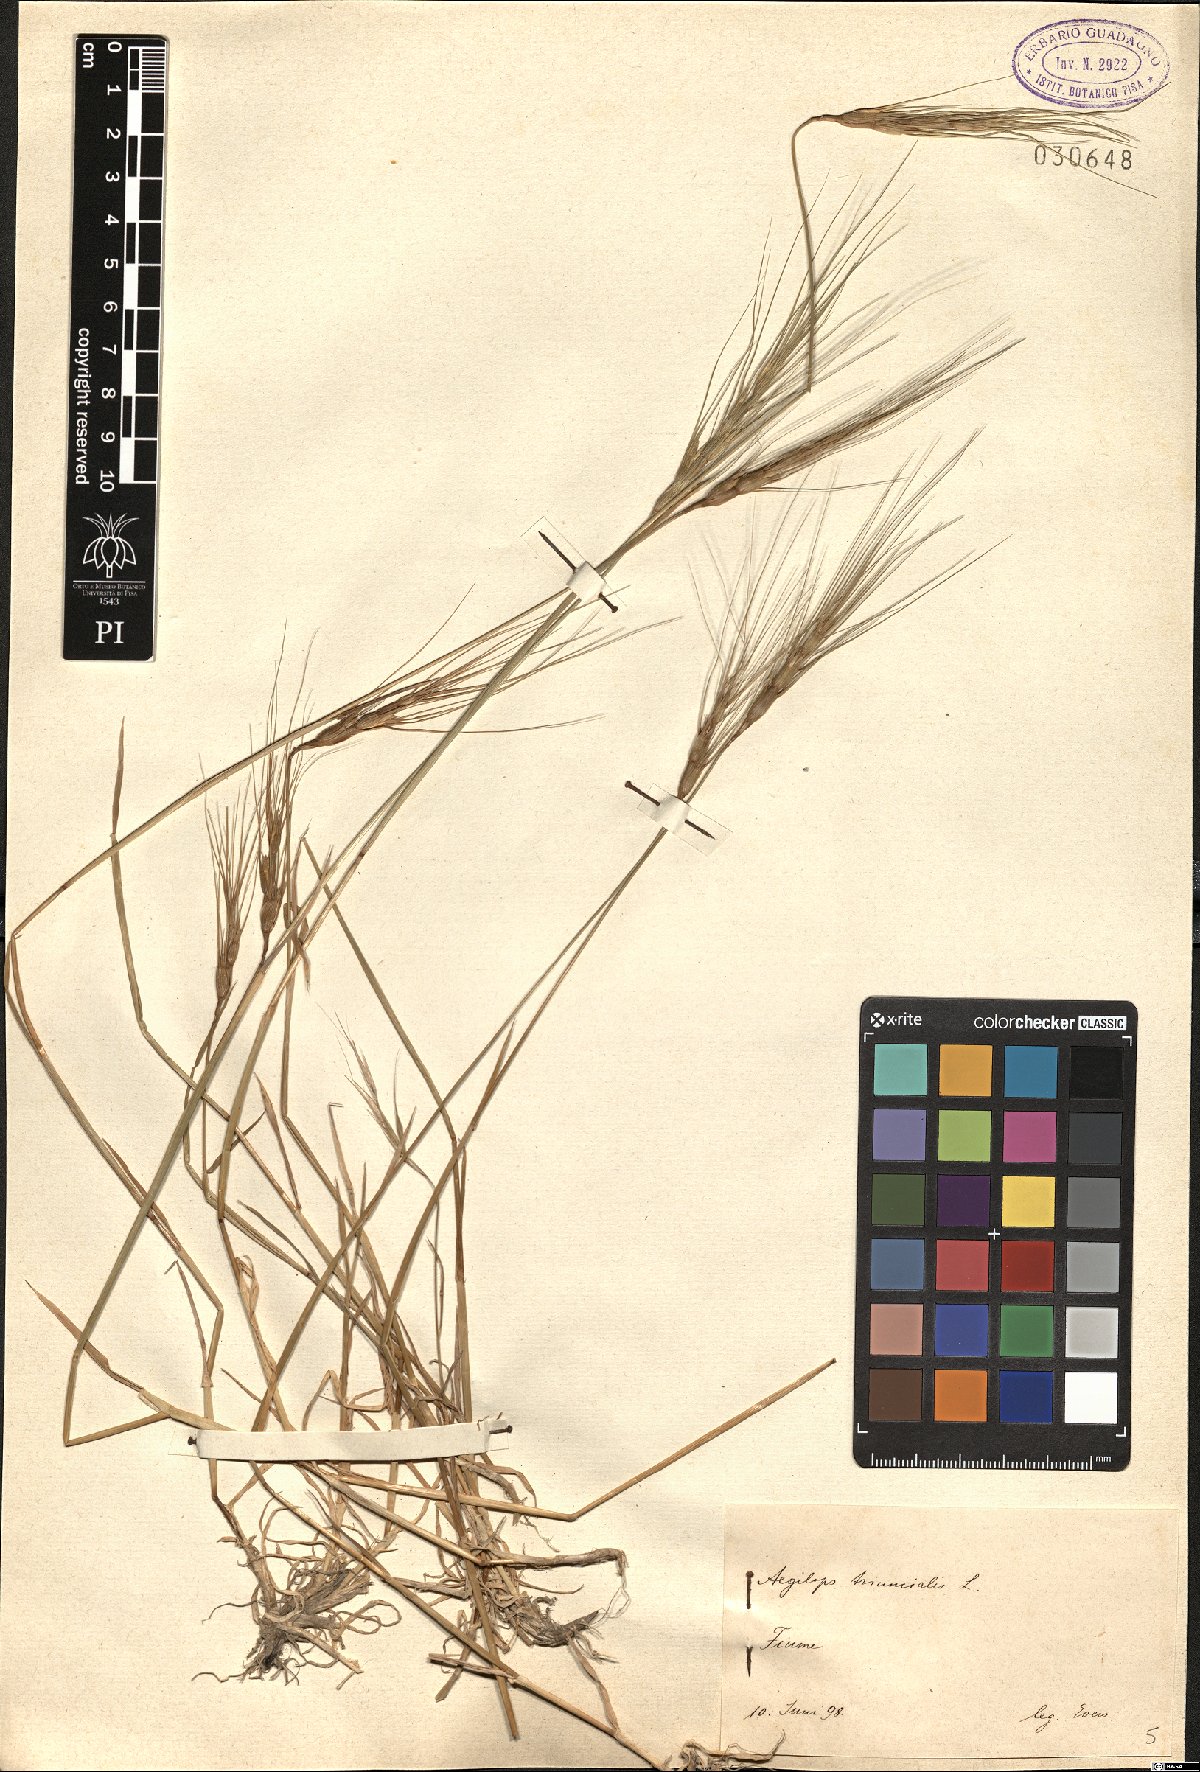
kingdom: Plantae
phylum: Tracheophyta
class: Liliopsida
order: Poales
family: Poaceae
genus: Aegilops
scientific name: Aegilops triuncialis
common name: Barb goat grass
